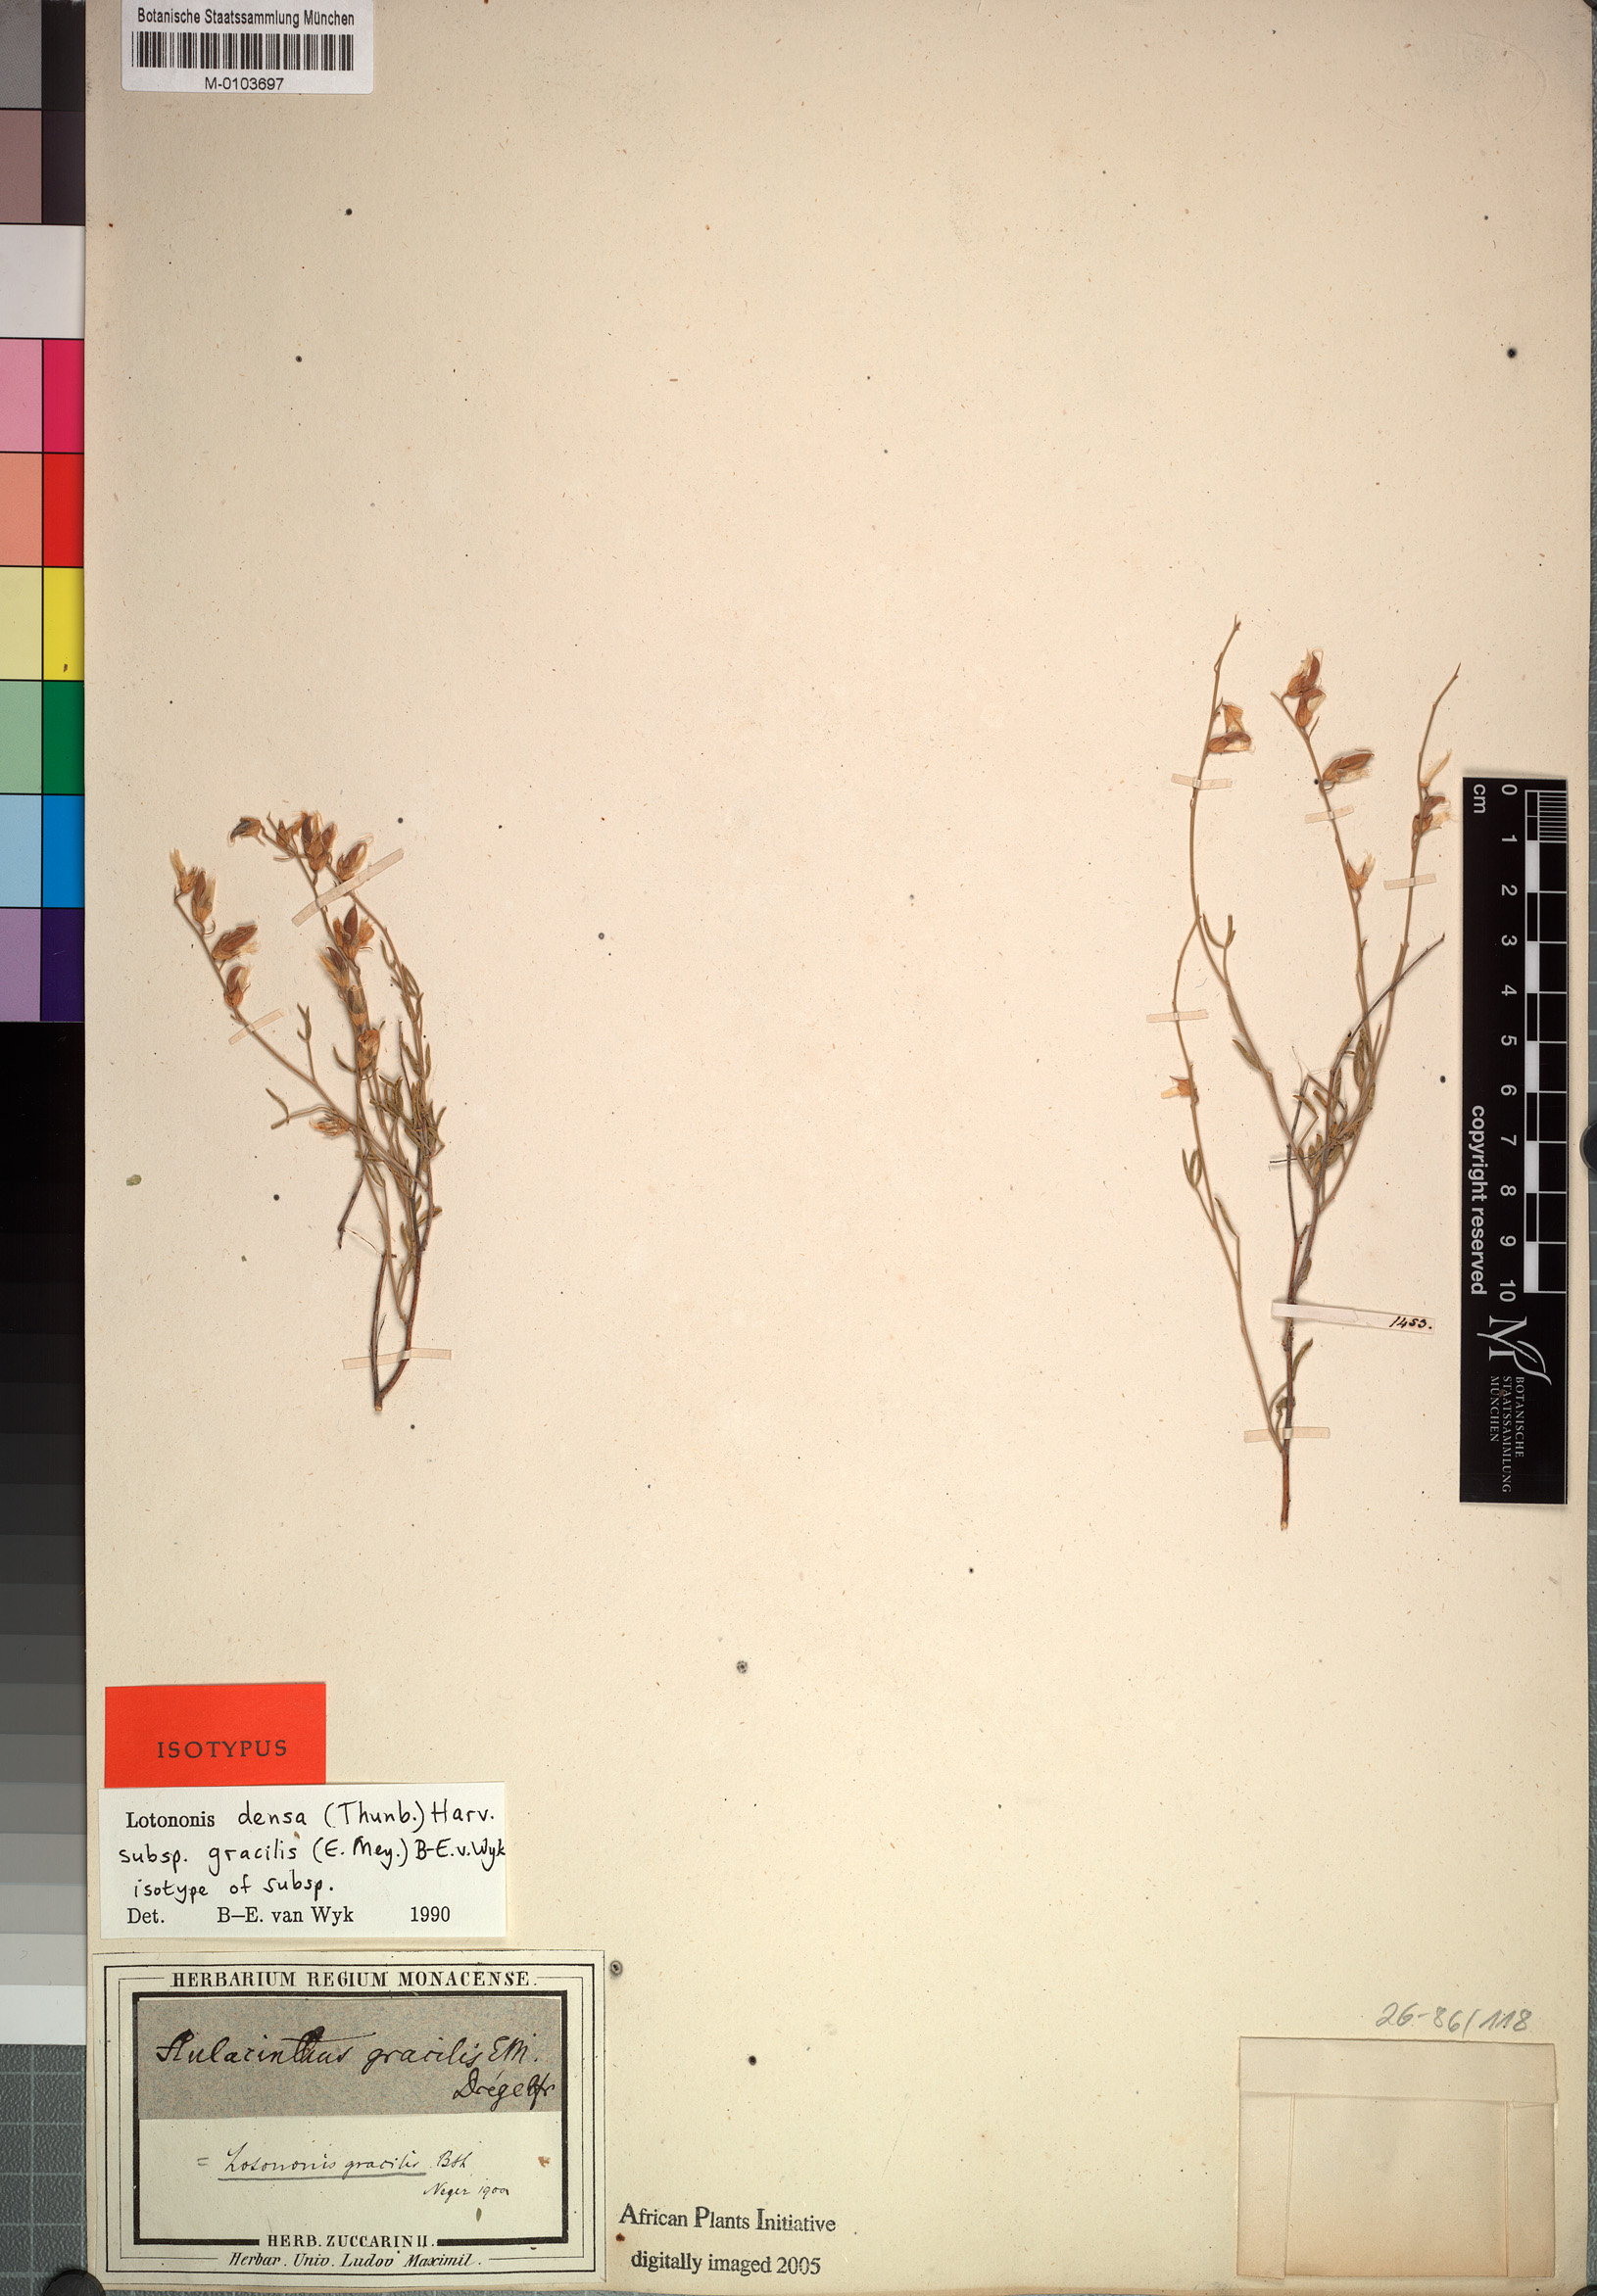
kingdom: Plantae
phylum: Tracheophyta
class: Magnoliopsida
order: Fabales
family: Fabaceae
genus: Lotononis
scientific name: Lotononis densa
